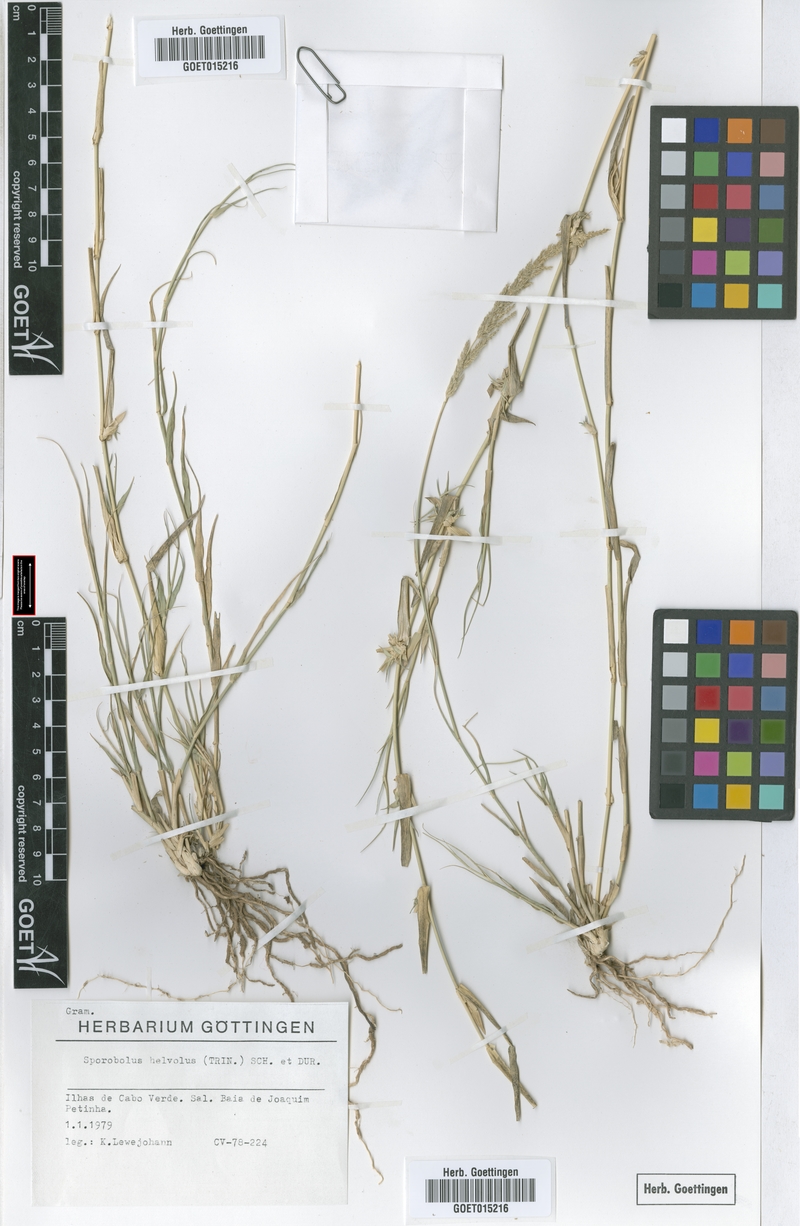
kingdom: Plantae
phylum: Tracheophyta
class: Liliopsida
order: Poales
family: Poaceae
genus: Sporobolus
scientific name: Sporobolus helvolus
